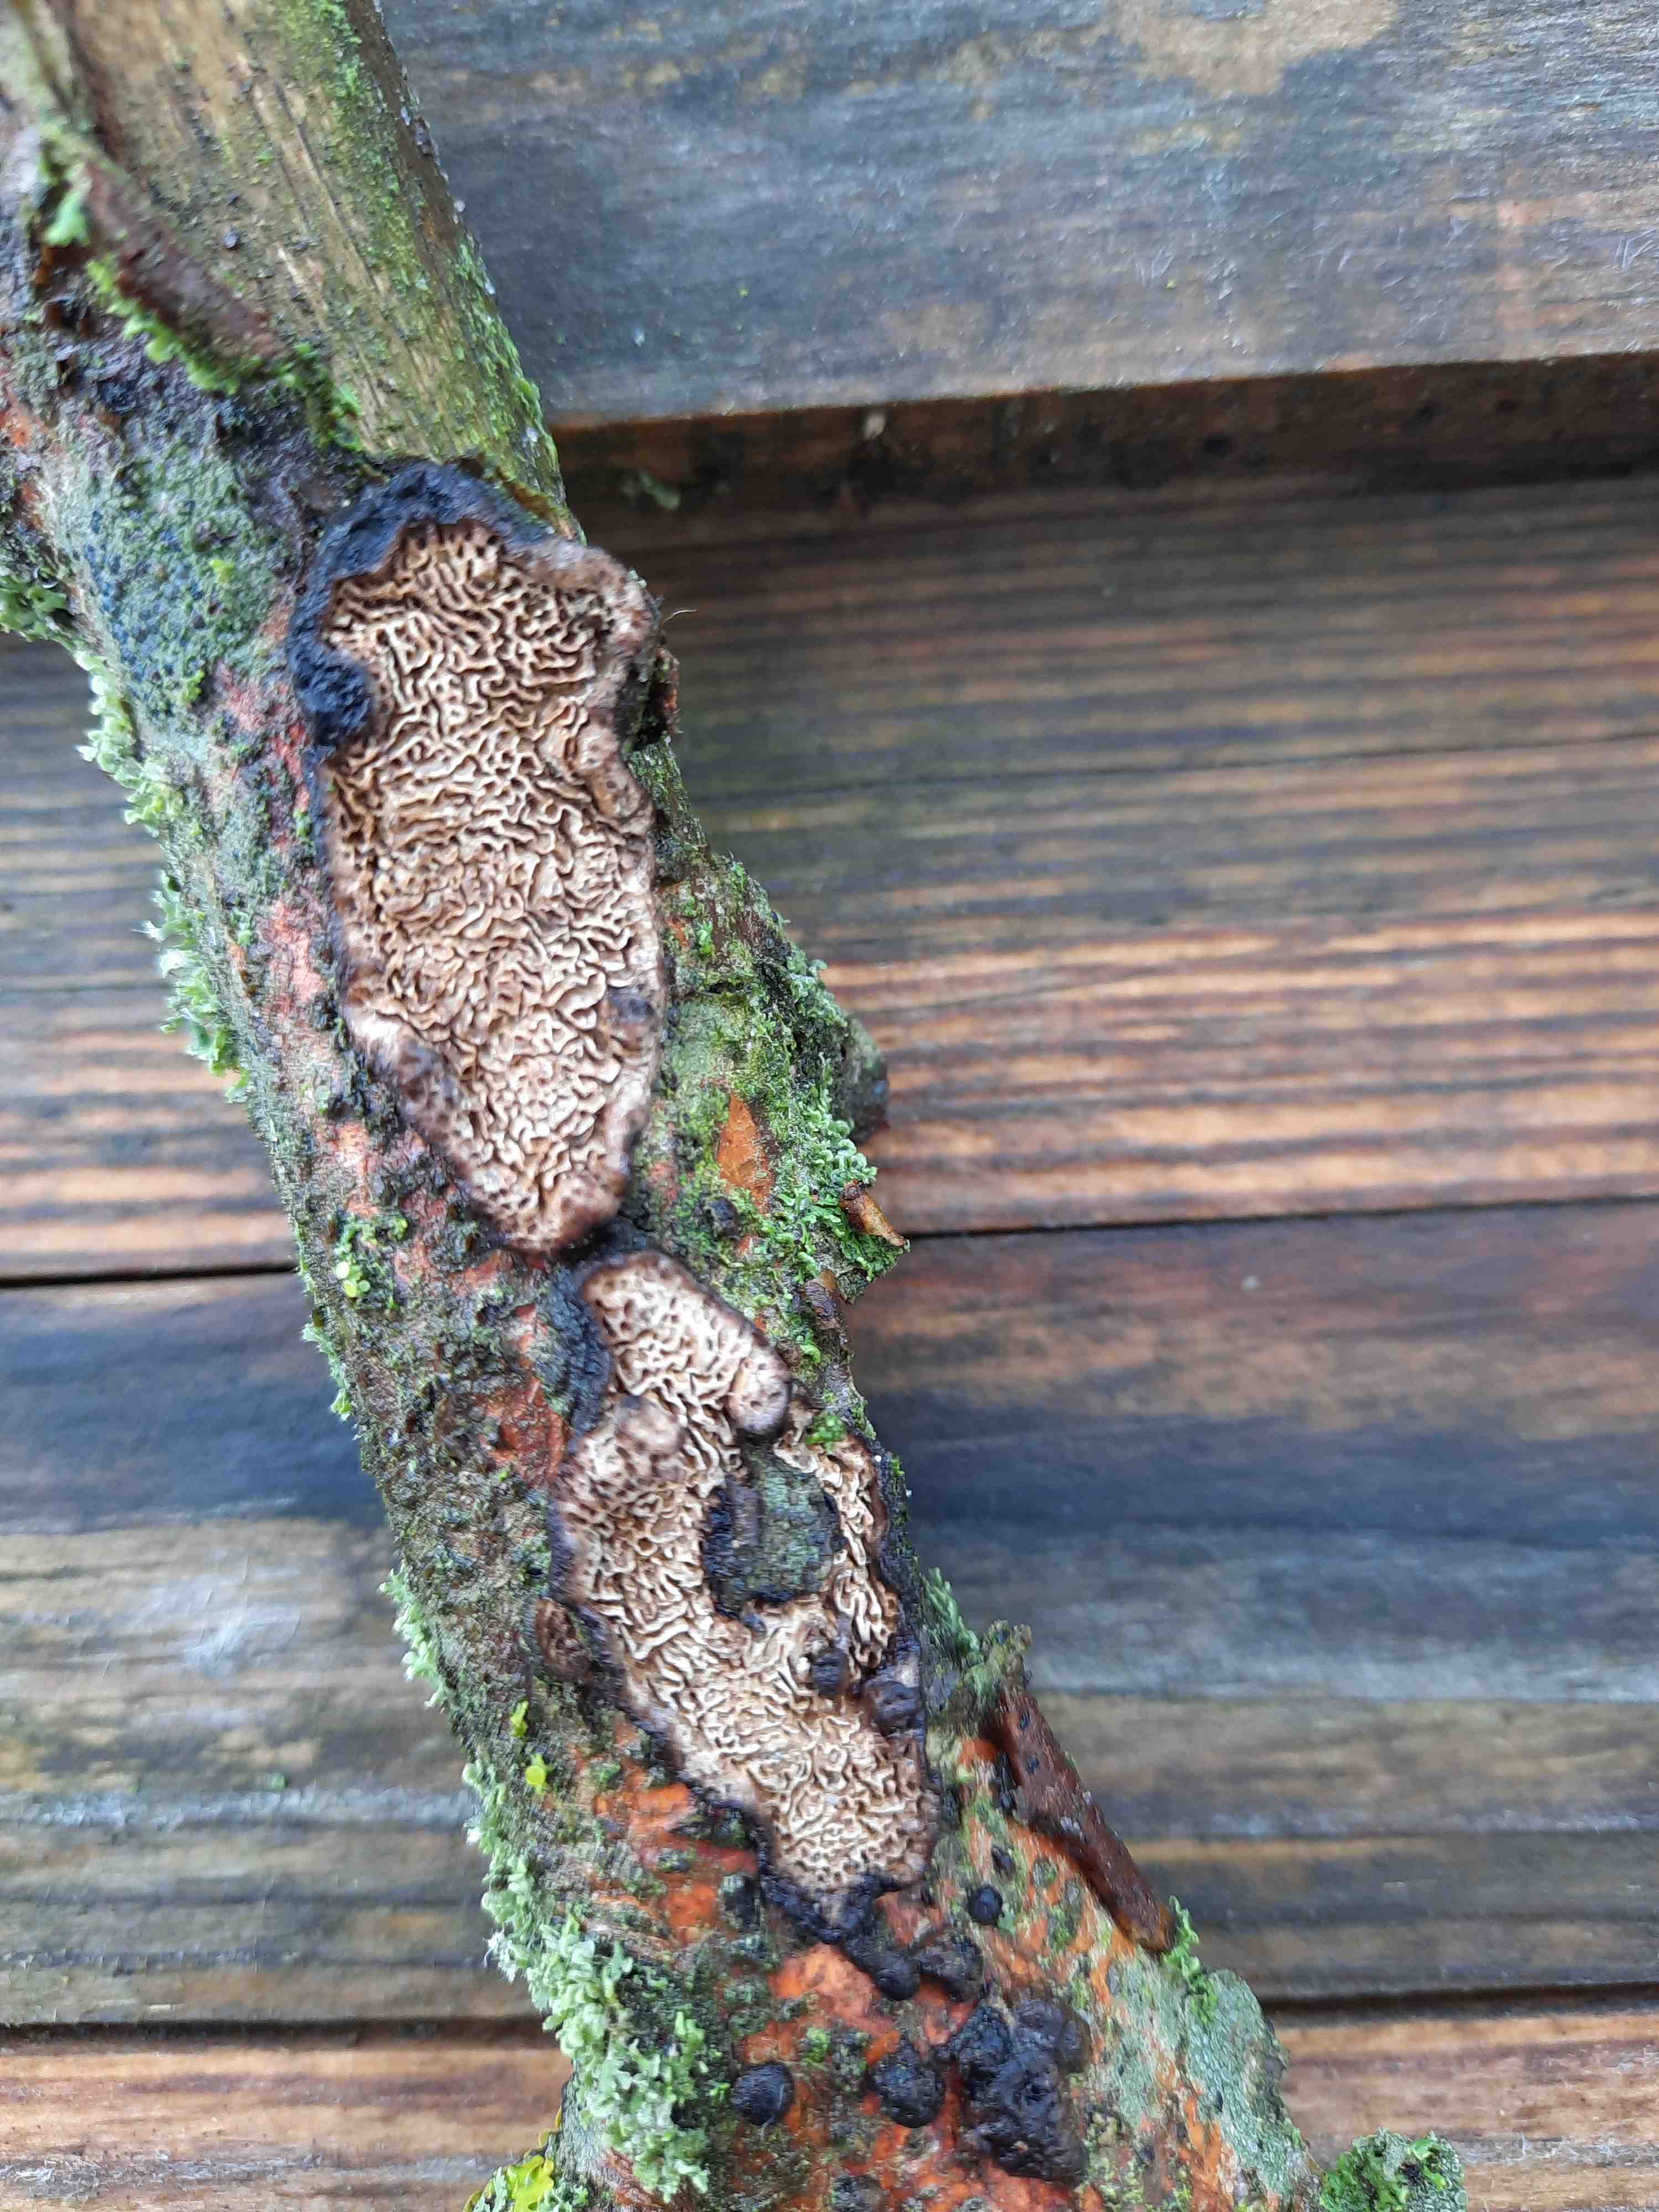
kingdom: Fungi
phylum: Basidiomycota
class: Agaricomycetes
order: Polyporales
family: Polyporaceae
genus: Podofomes
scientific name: Podofomes mollis
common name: blød begporesvamp
